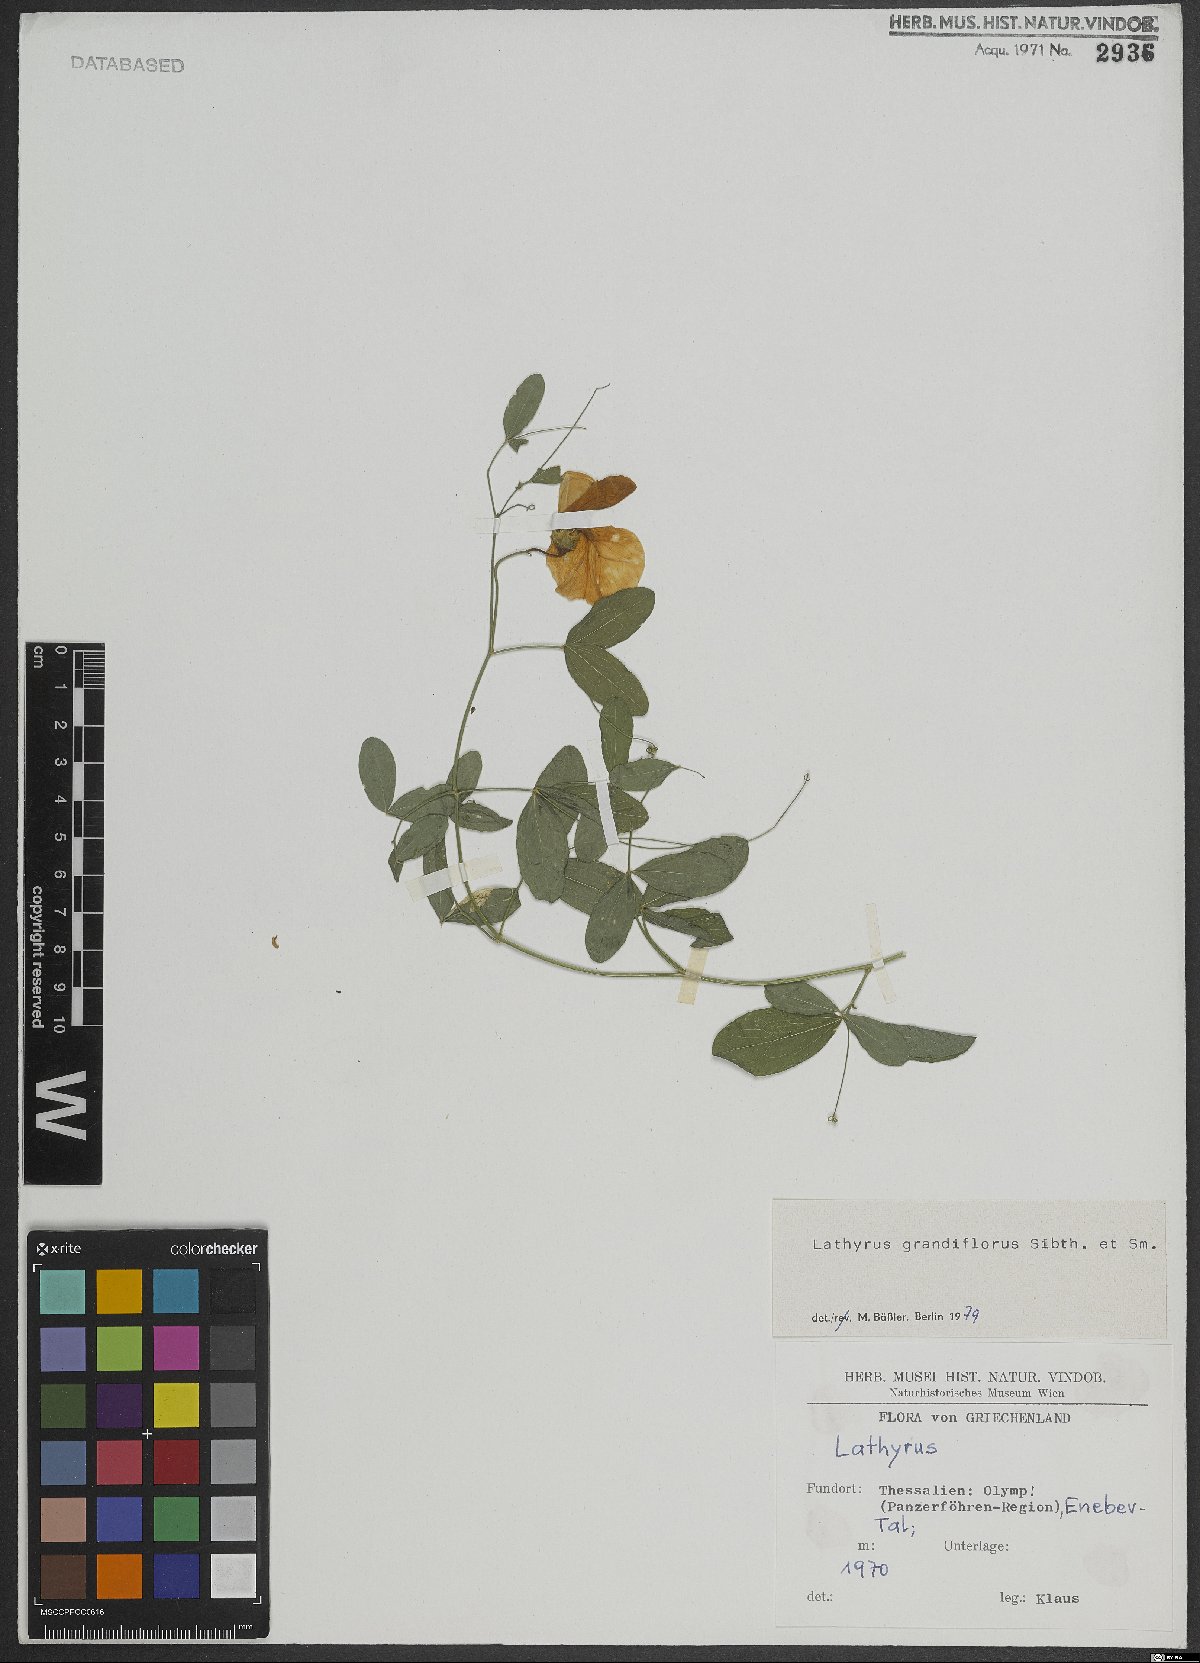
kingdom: Plantae
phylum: Tracheophyta
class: Magnoliopsida
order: Fabales
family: Fabaceae
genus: Lathyrus
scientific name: Lathyrus grandiflorus
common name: Two-flowered everlasting-pea
